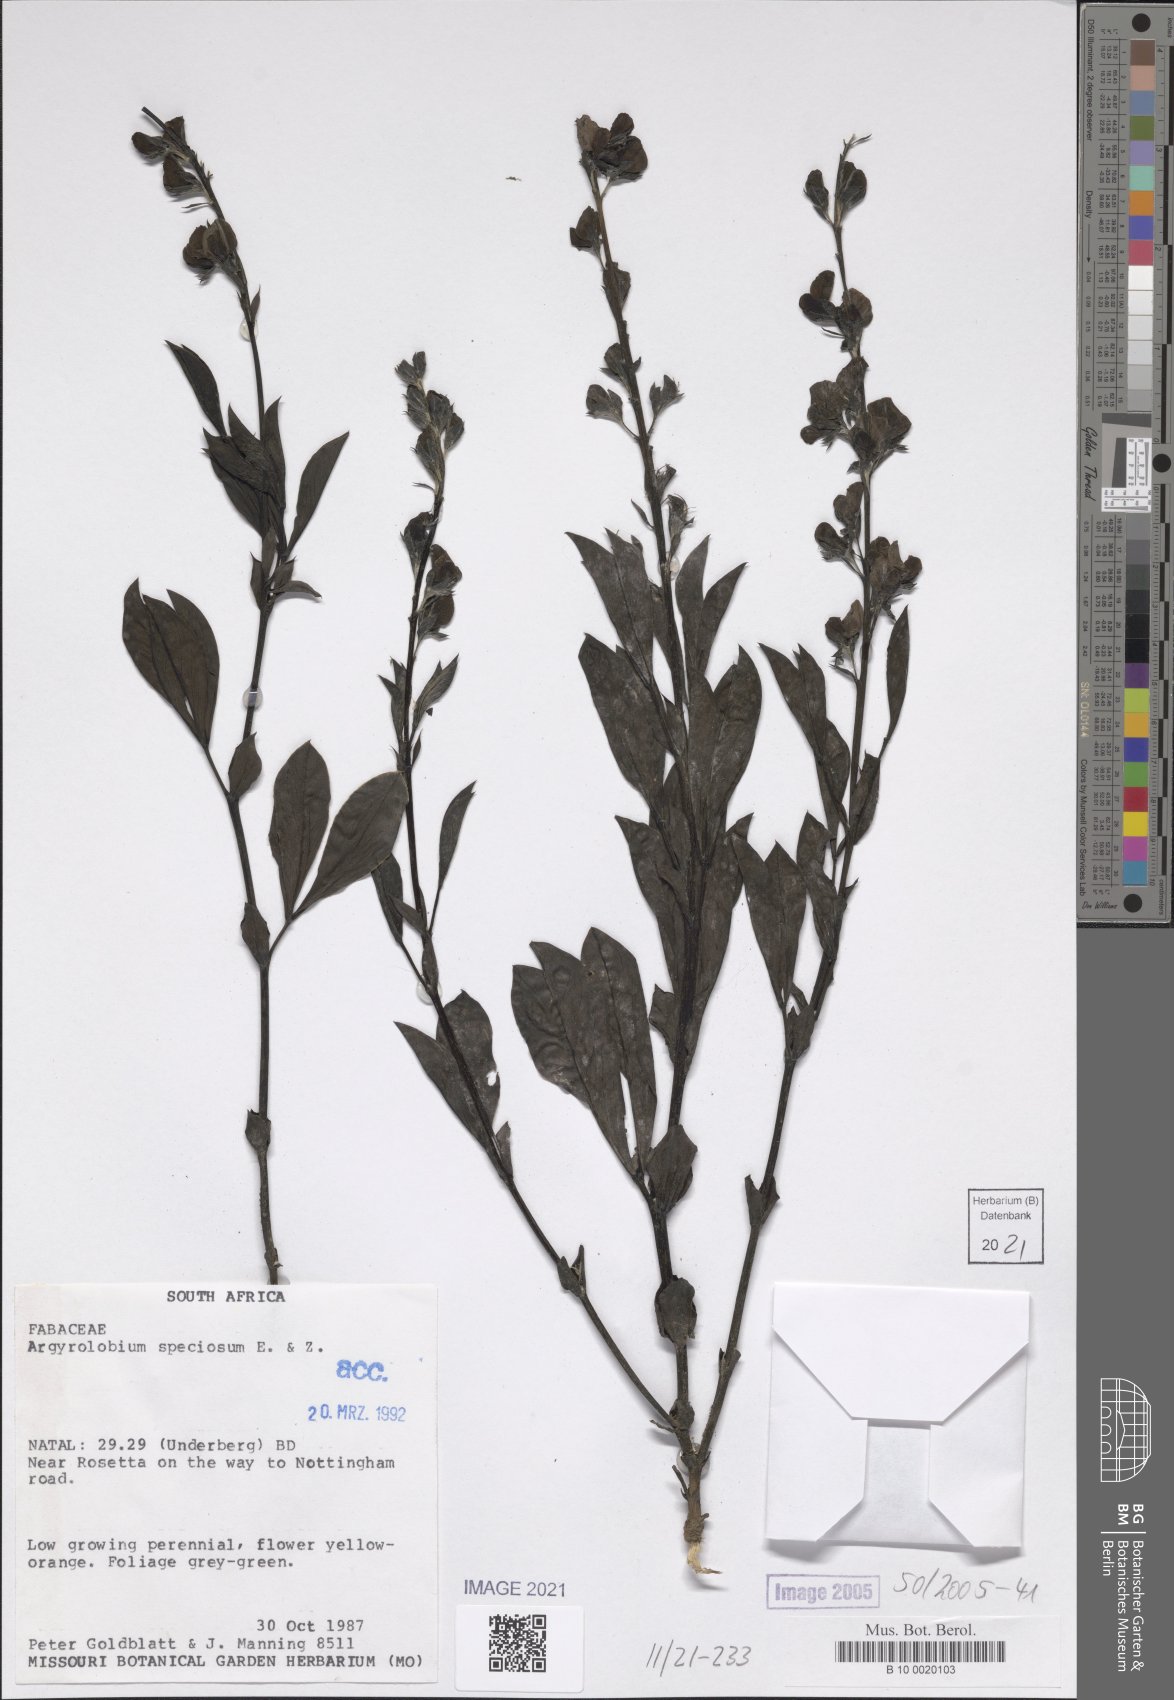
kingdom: Plantae
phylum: Tracheophyta
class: Magnoliopsida
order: Fabales
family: Fabaceae
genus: Argyrolobium
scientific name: Argyrolobium speciosum
